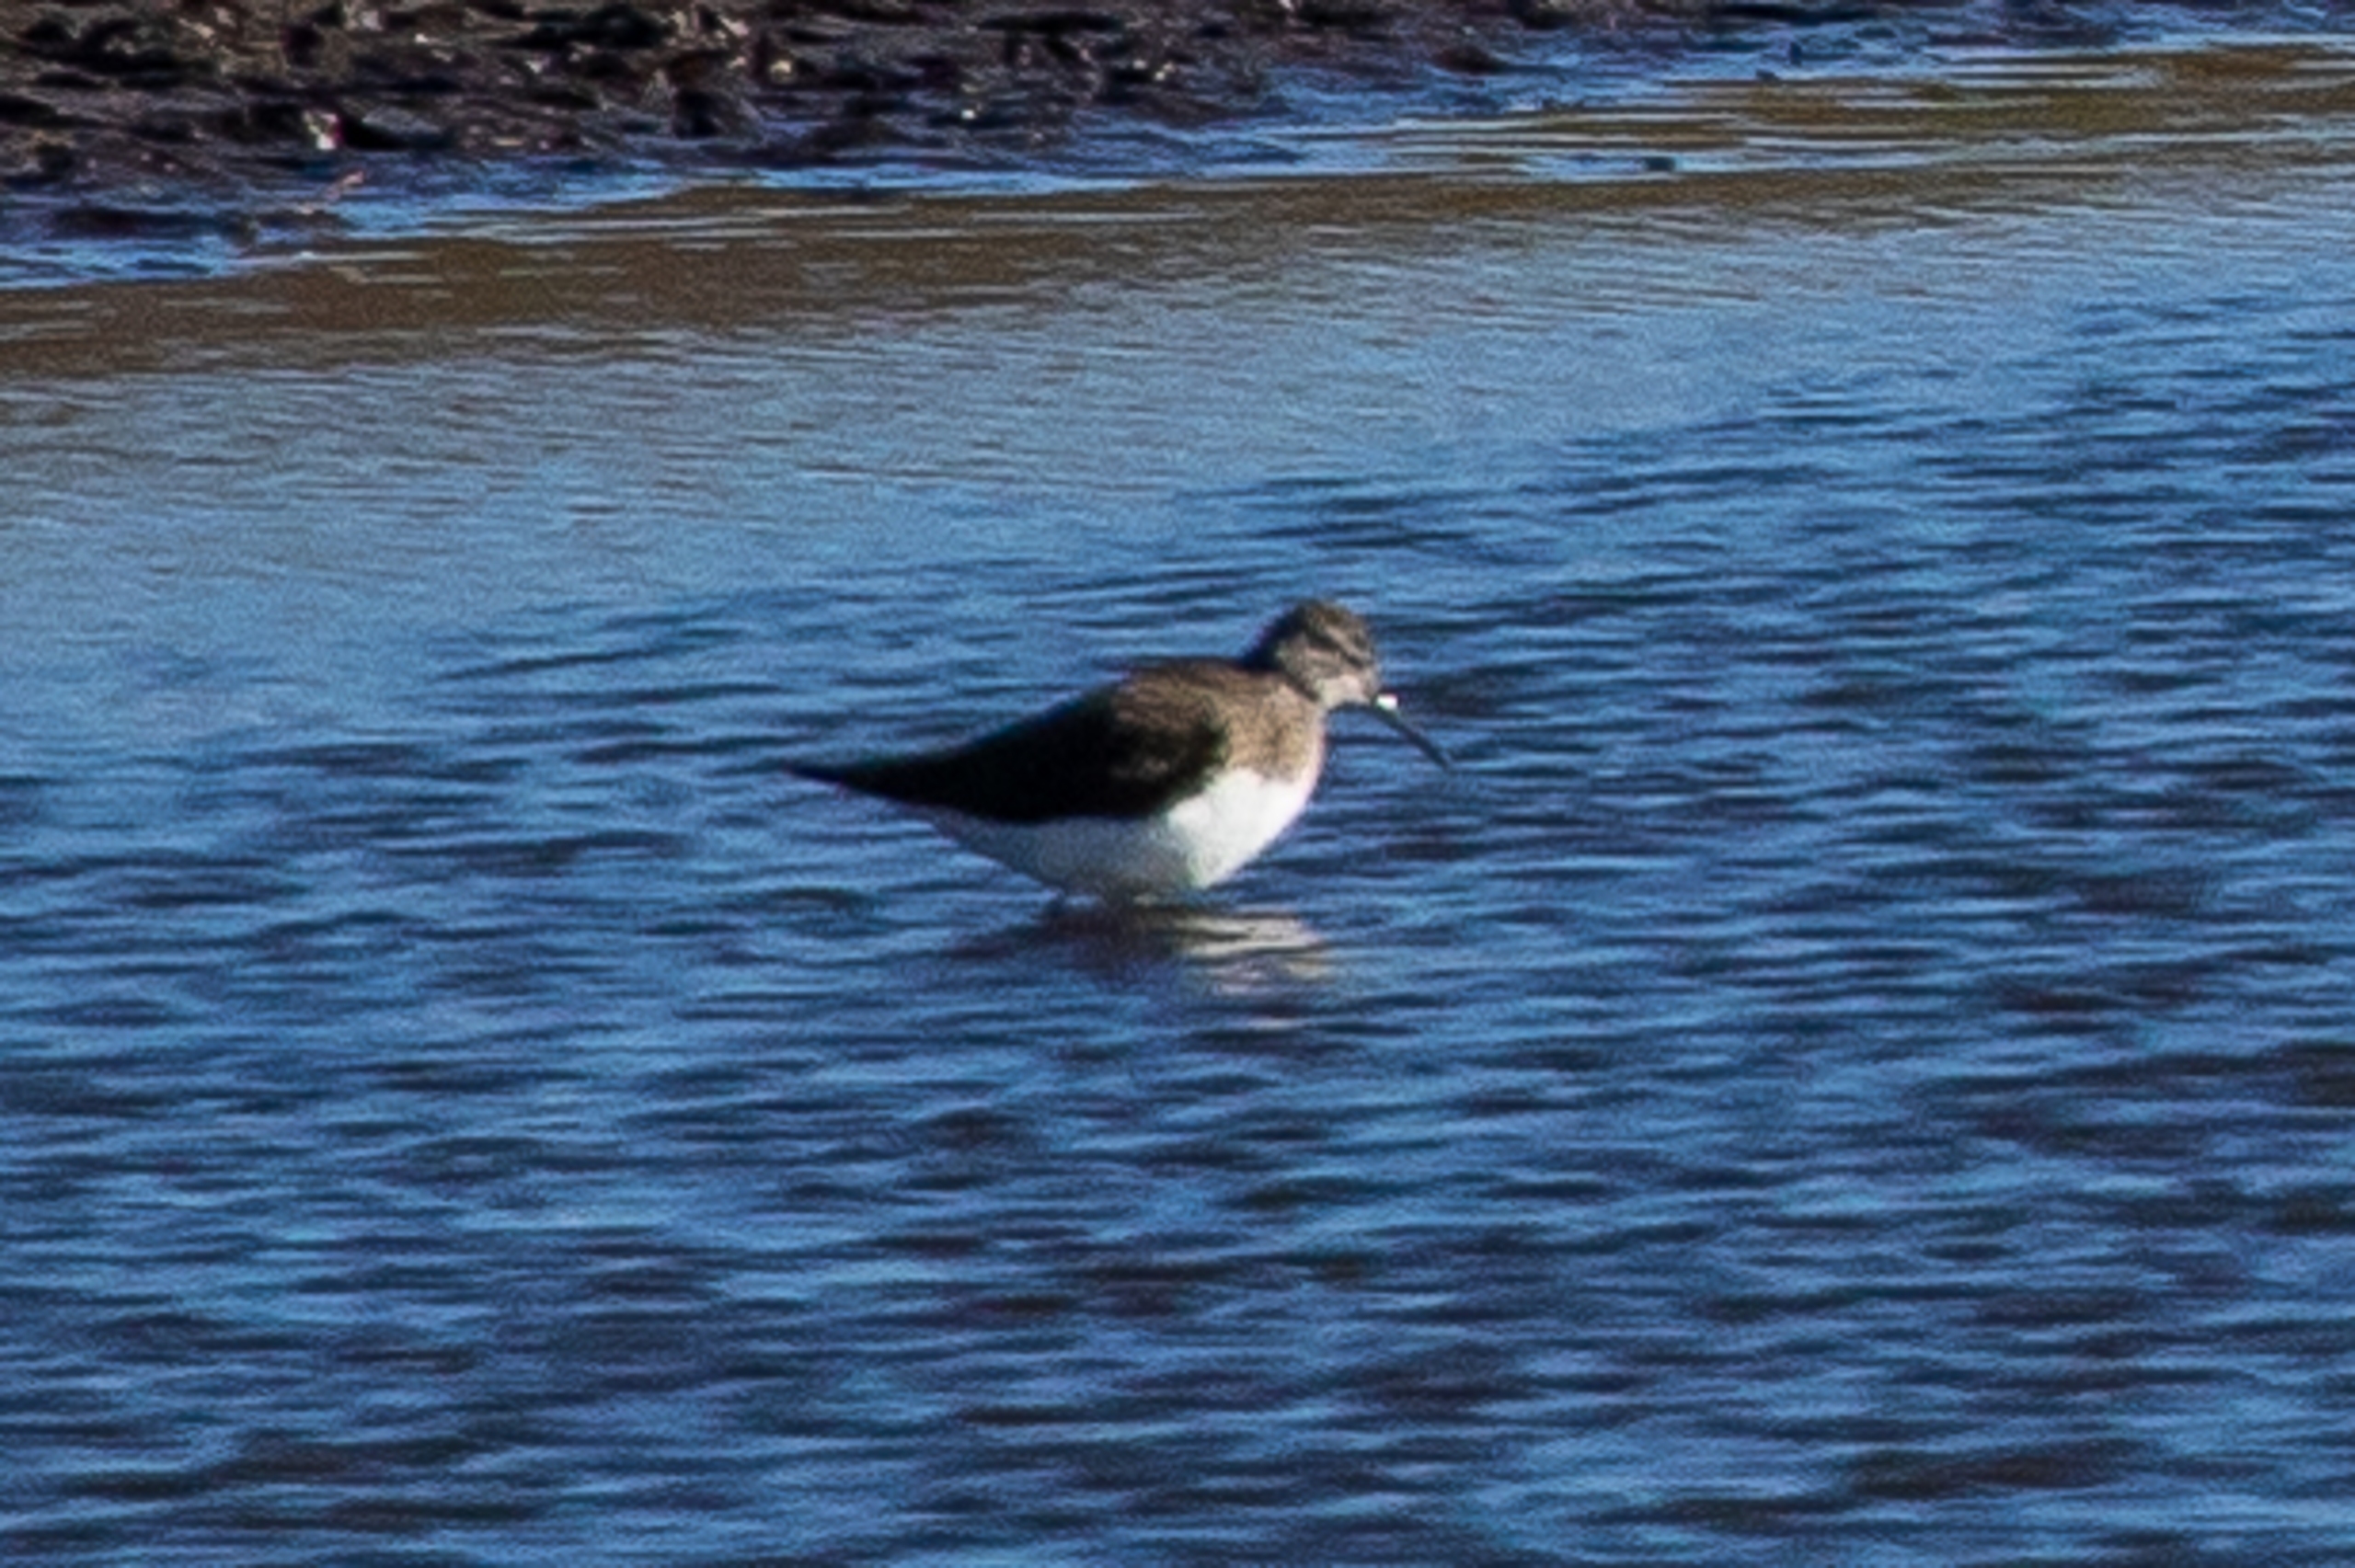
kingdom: Animalia
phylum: Chordata
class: Aves
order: Charadriiformes
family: Scolopacidae
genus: Tringa
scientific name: Tringa ochropus
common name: Svaleklire
